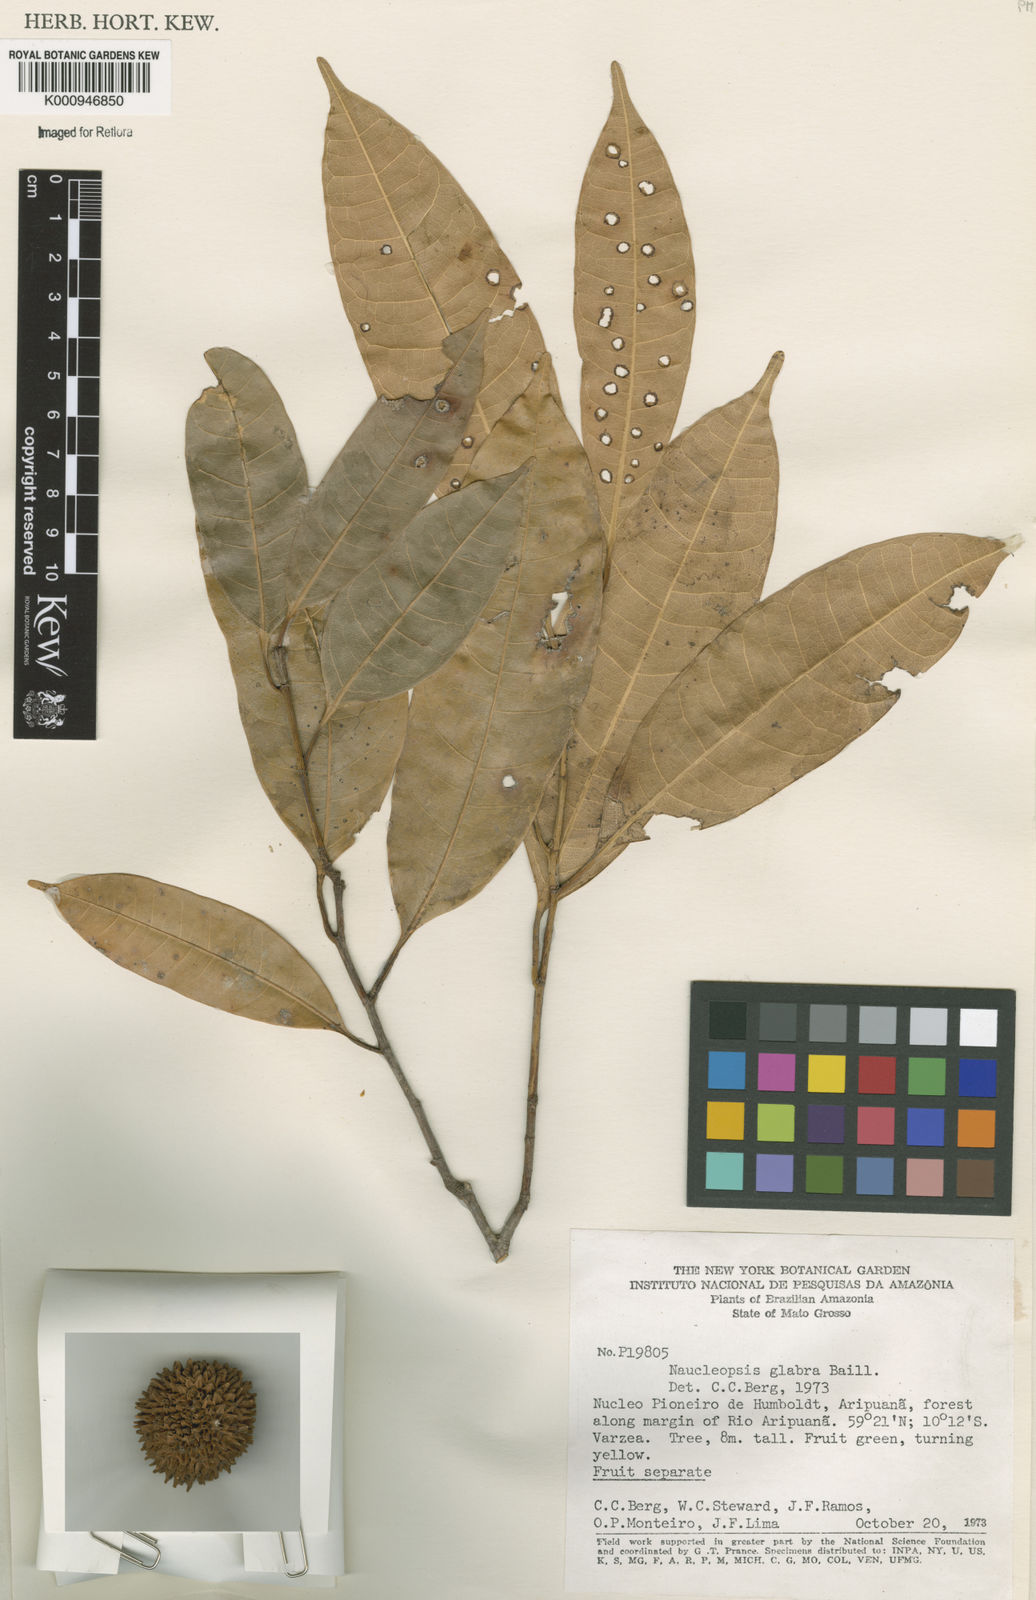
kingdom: Plantae
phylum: Tracheophyta
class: Magnoliopsida
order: Rosales
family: Moraceae
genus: Naucleopsis
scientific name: Naucleopsis glabra
